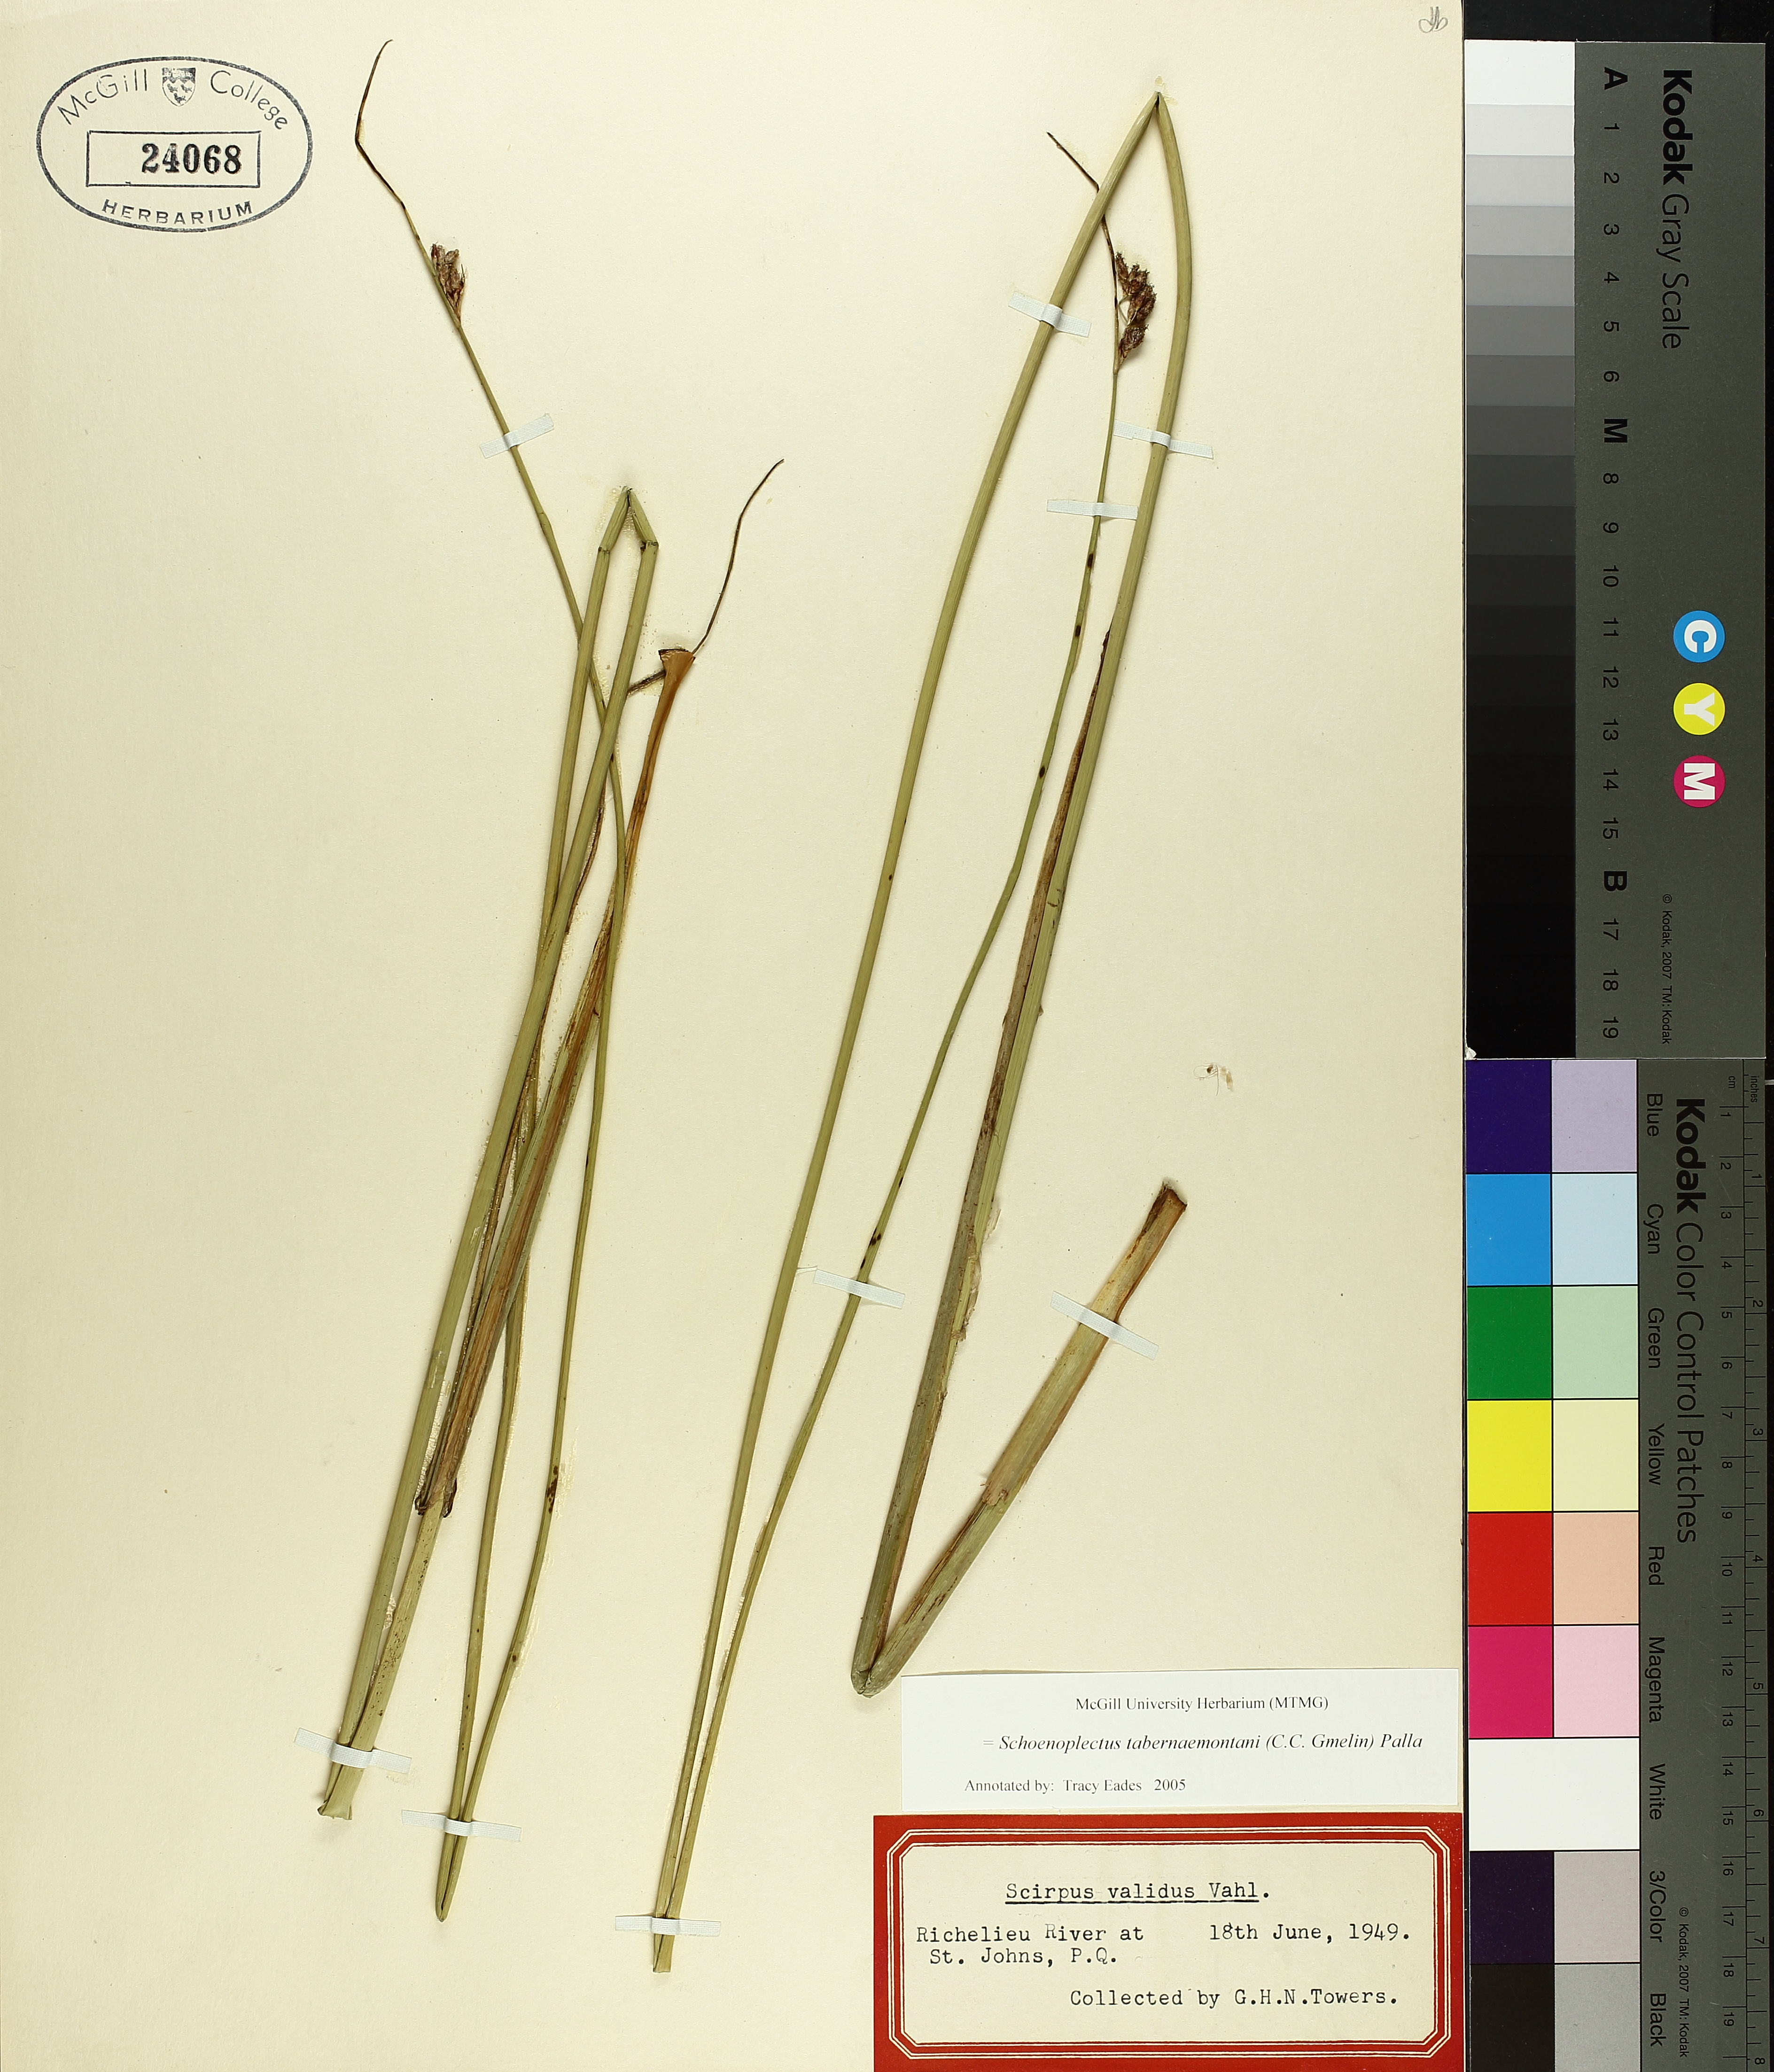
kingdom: Plantae
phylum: Tracheophyta
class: Liliopsida
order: Poales
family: Cyperaceae
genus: Schoenoplectus
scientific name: Schoenoplectus tabernaemontani
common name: Grey club-rush
